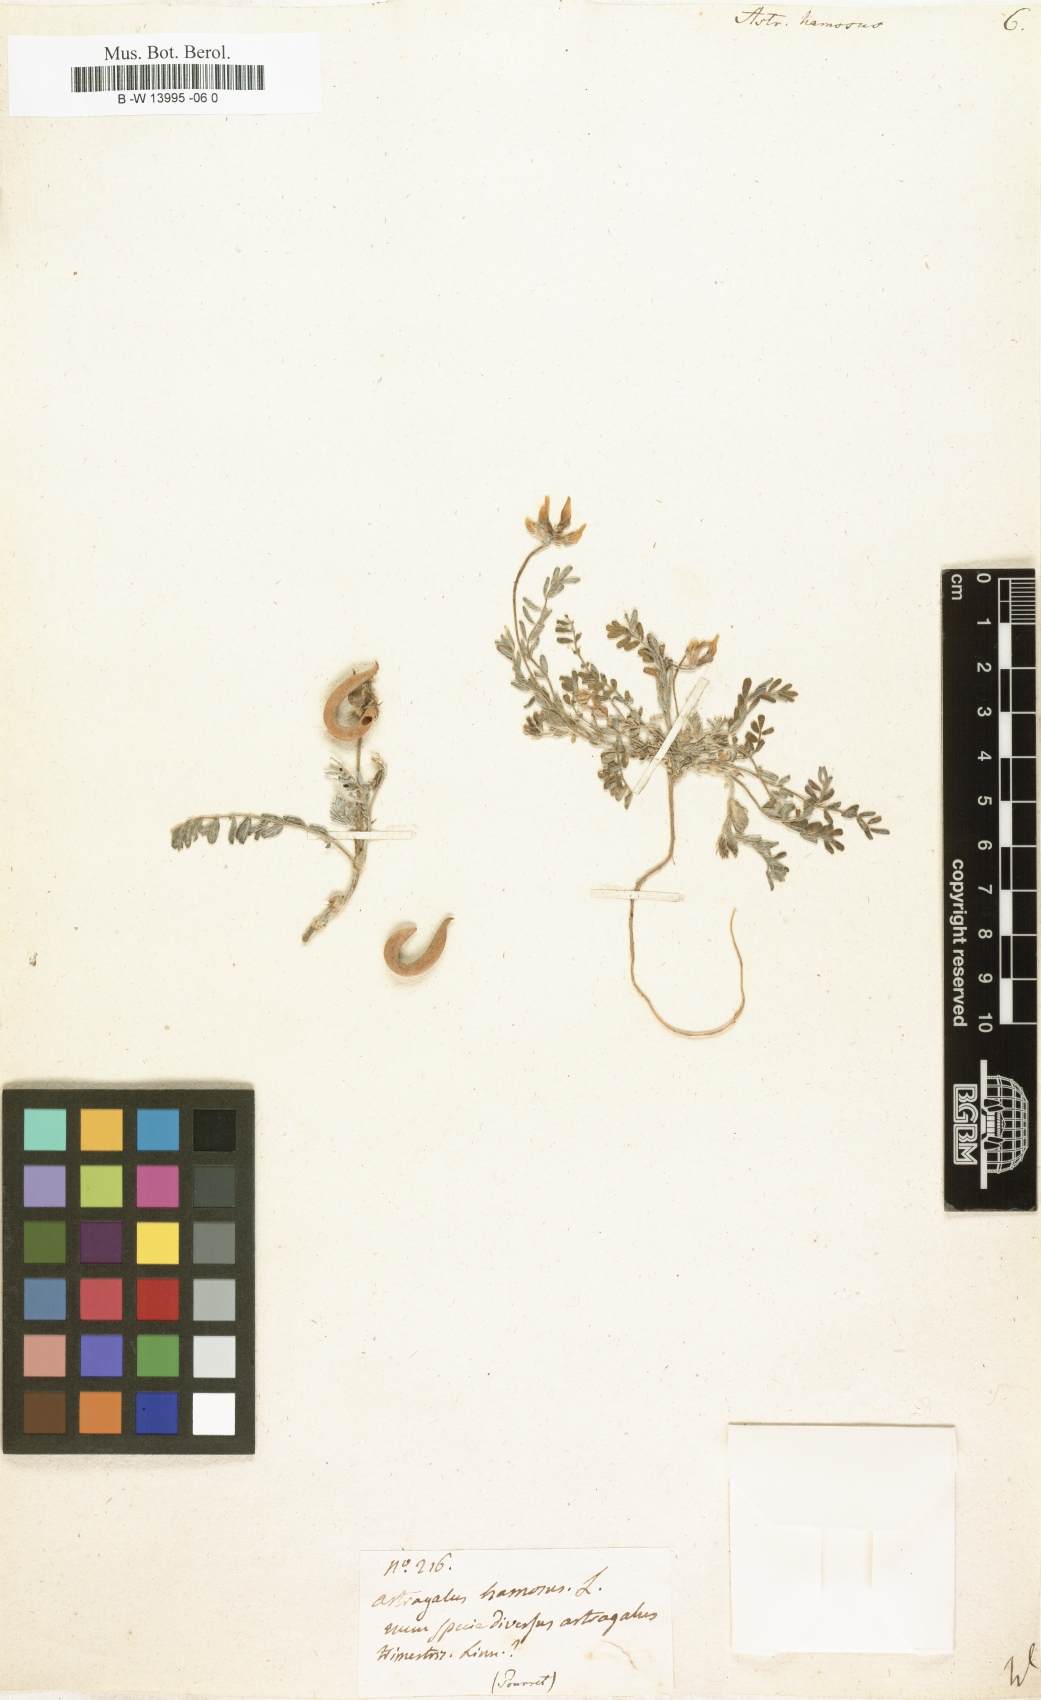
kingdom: Plantae
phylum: Tracheophyta
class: Magnoliopsida
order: Fabales
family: Fabaceae
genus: Astragalus
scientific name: Astragalus hamosus
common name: European milkvetch
